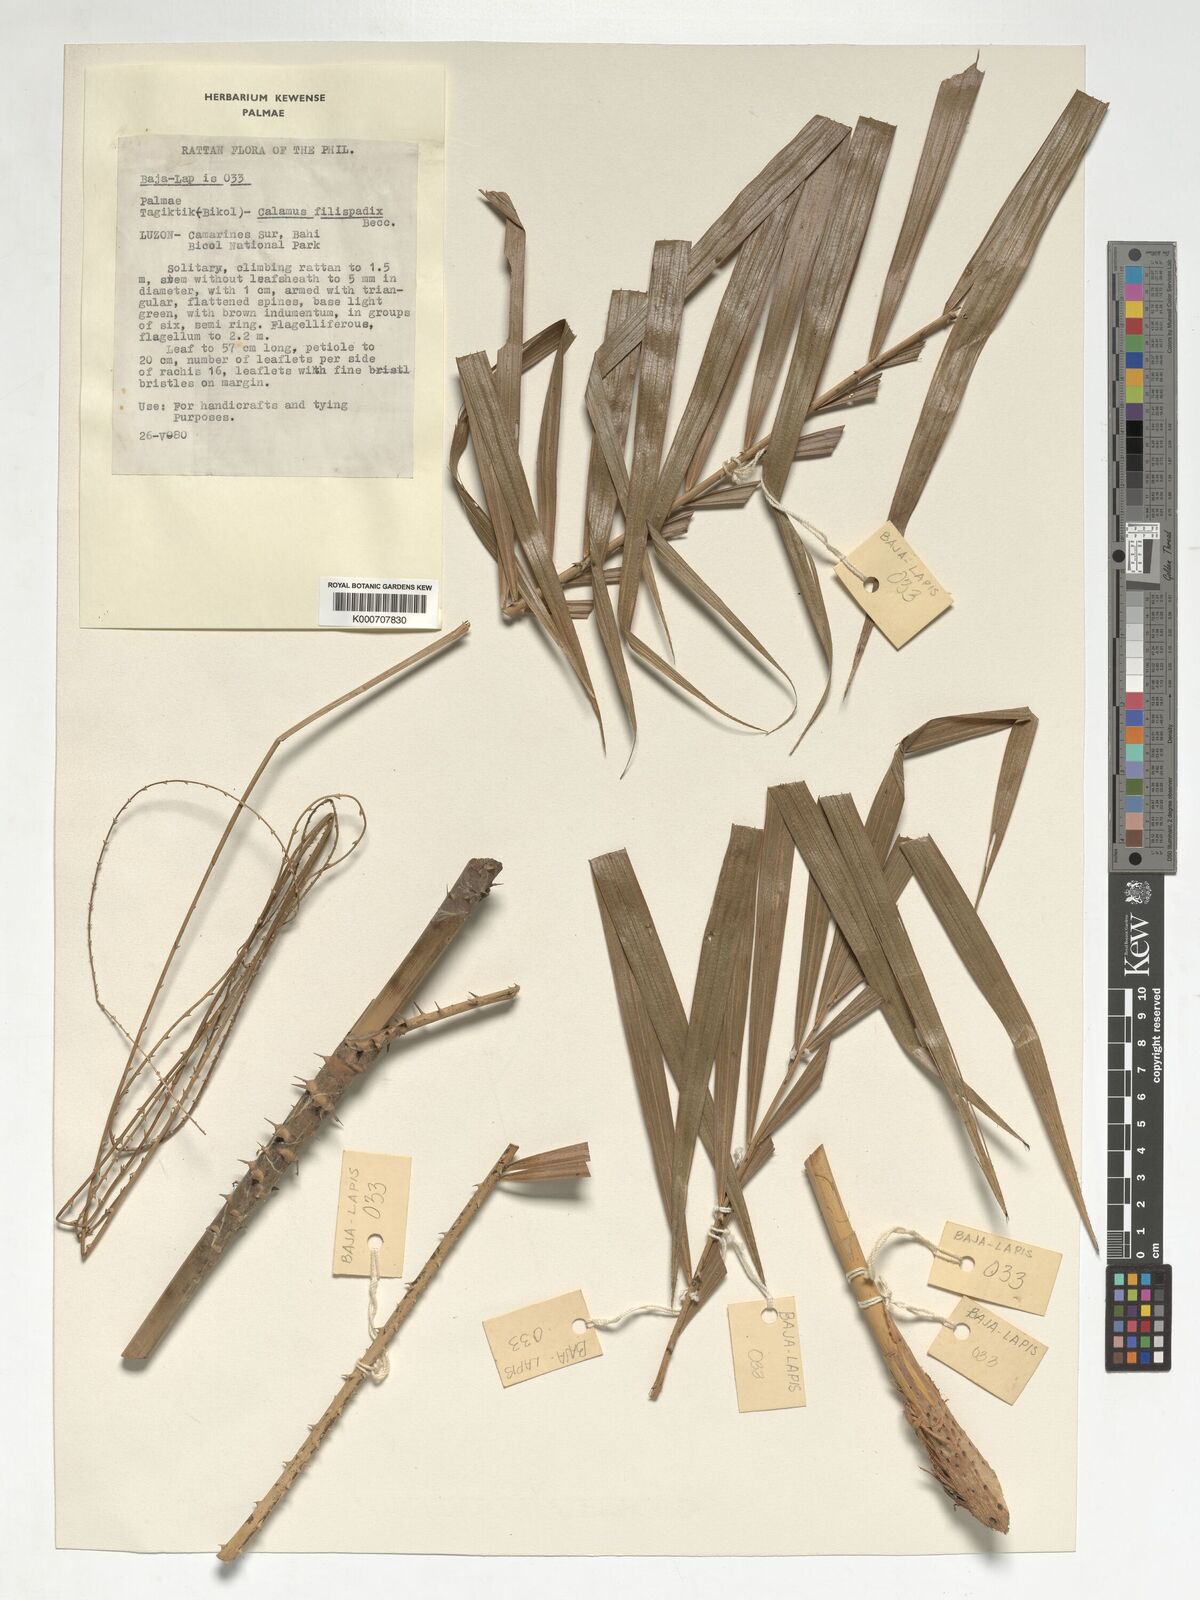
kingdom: Plantae
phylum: Tracheophyta
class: Liliopsida
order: Arecales
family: Arecaceae
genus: Calamus
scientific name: Calamus filispadix
